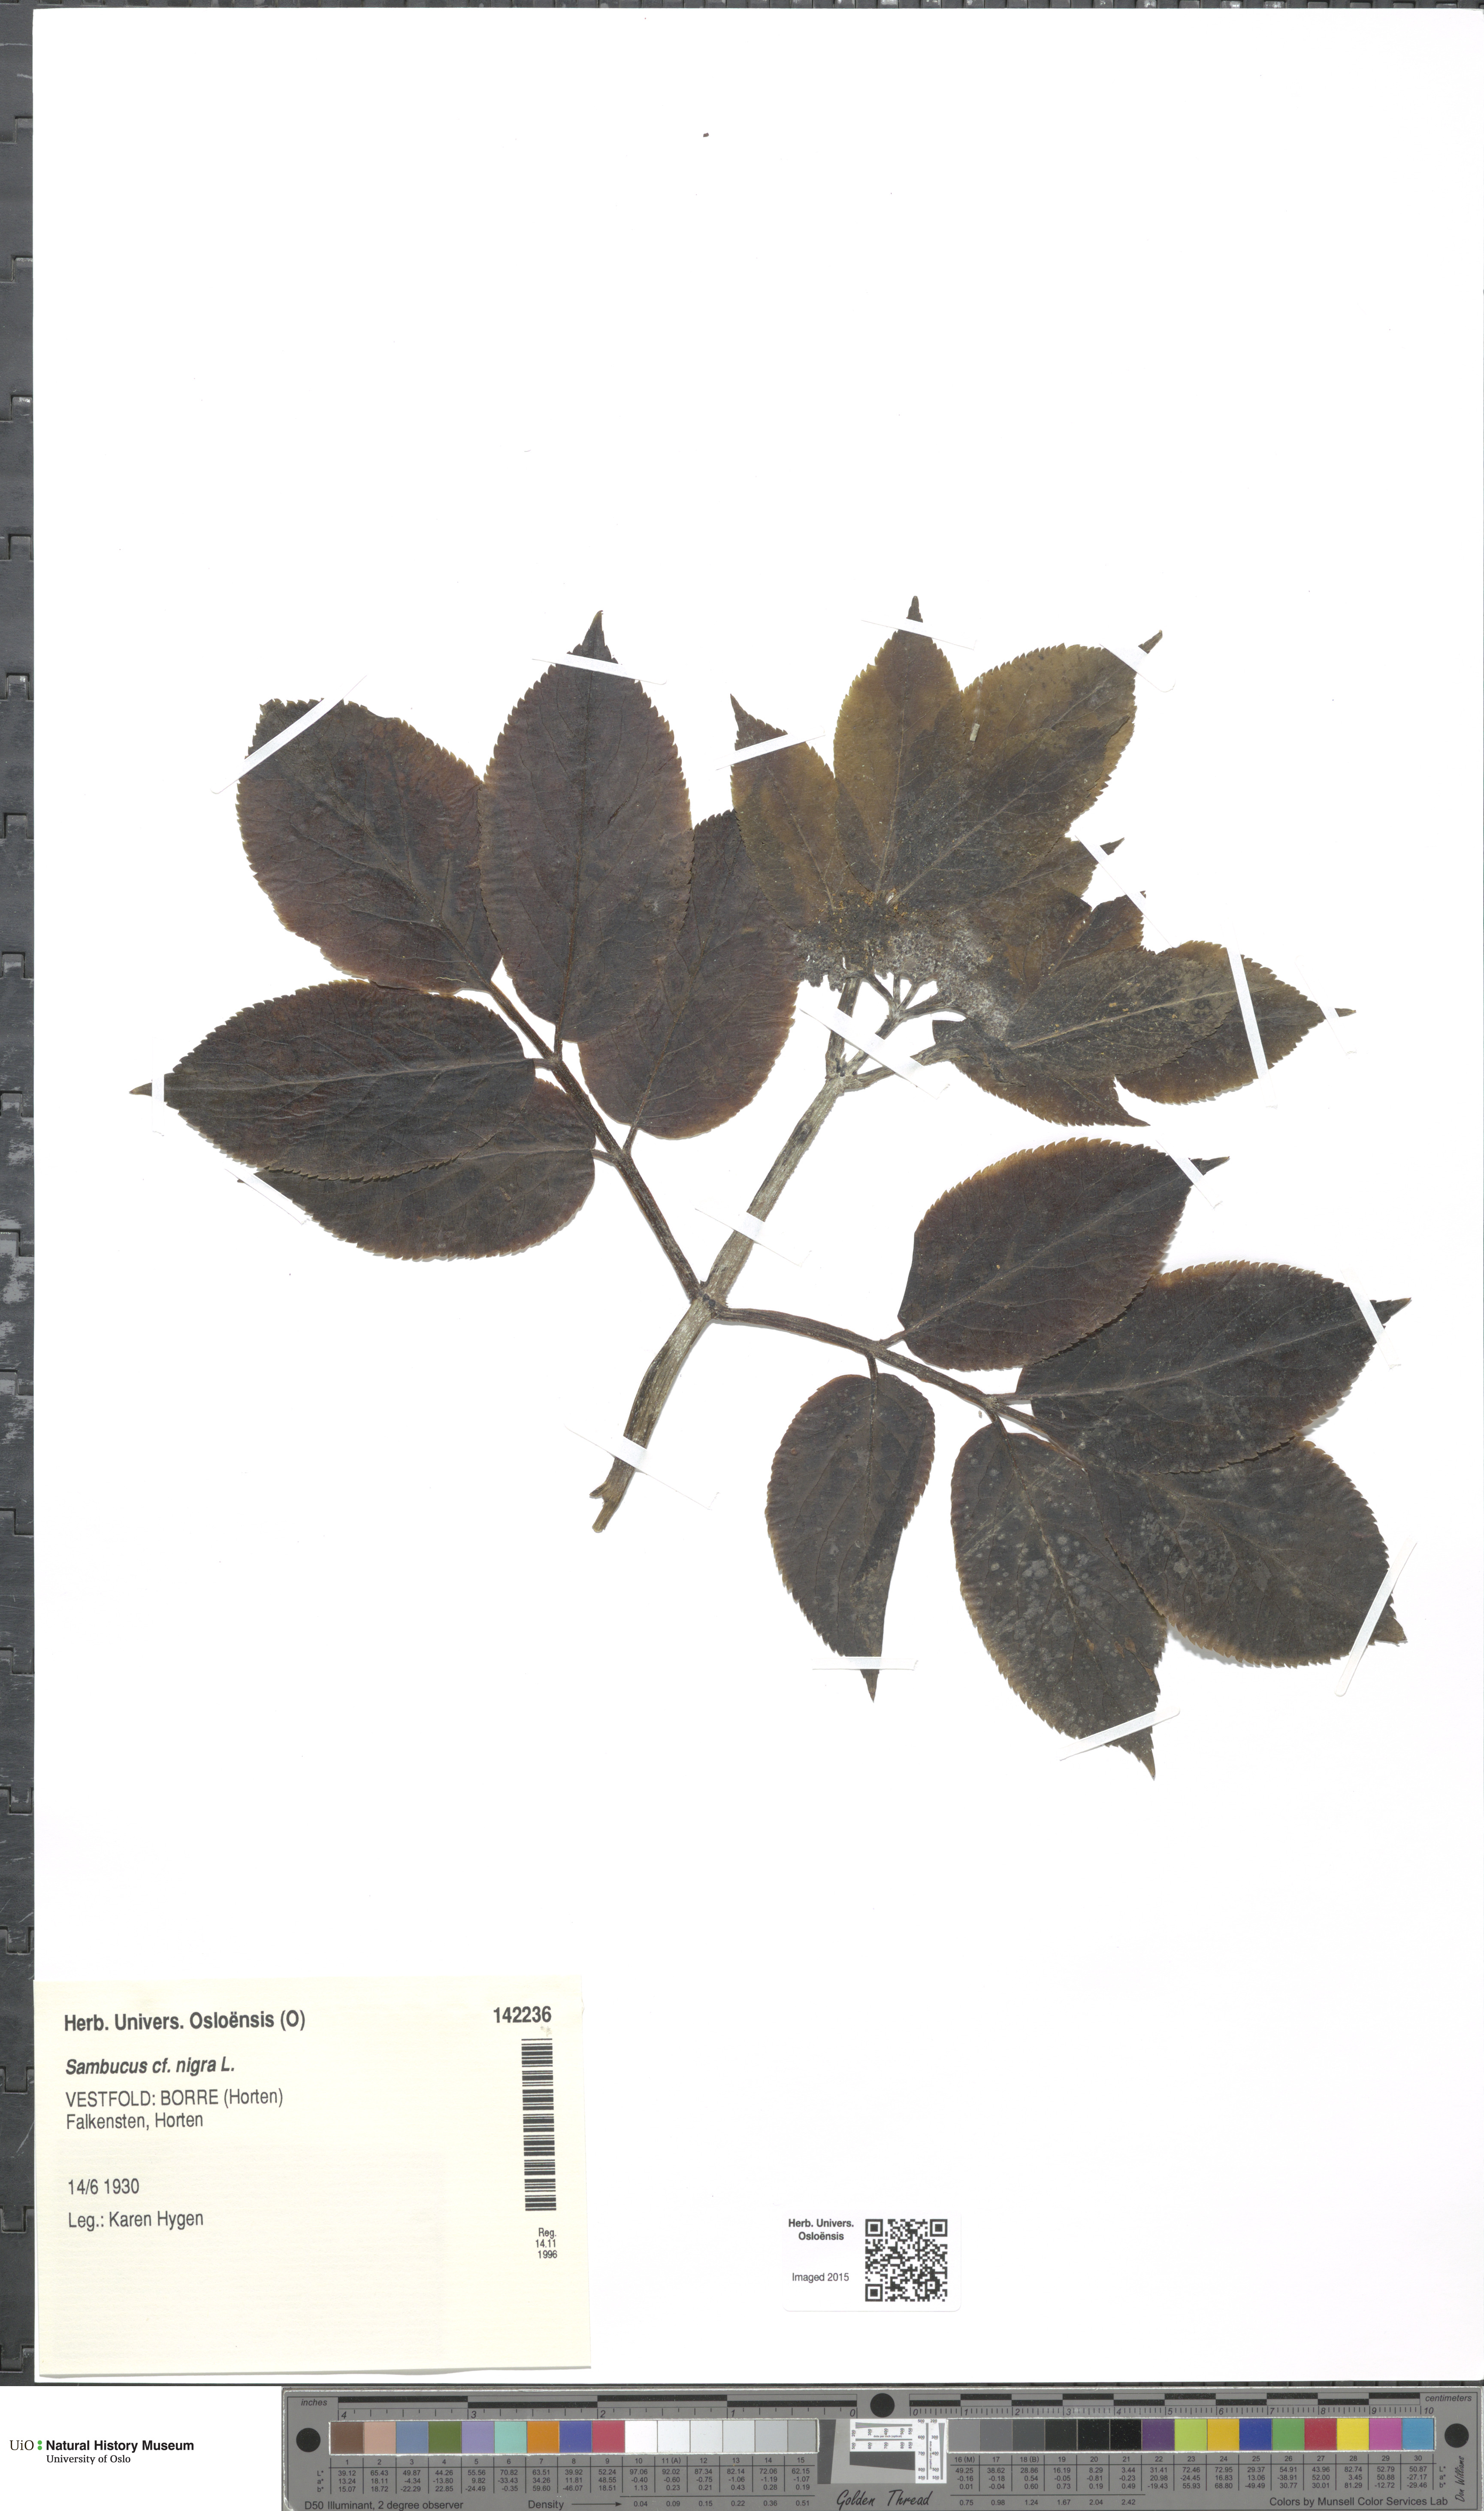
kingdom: Plantae
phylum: Tracheophyta
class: Magnoliopsida
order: Dipsacales
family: Viburnaceae
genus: Sambucus
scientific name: Sambucus nigra
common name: Elder
